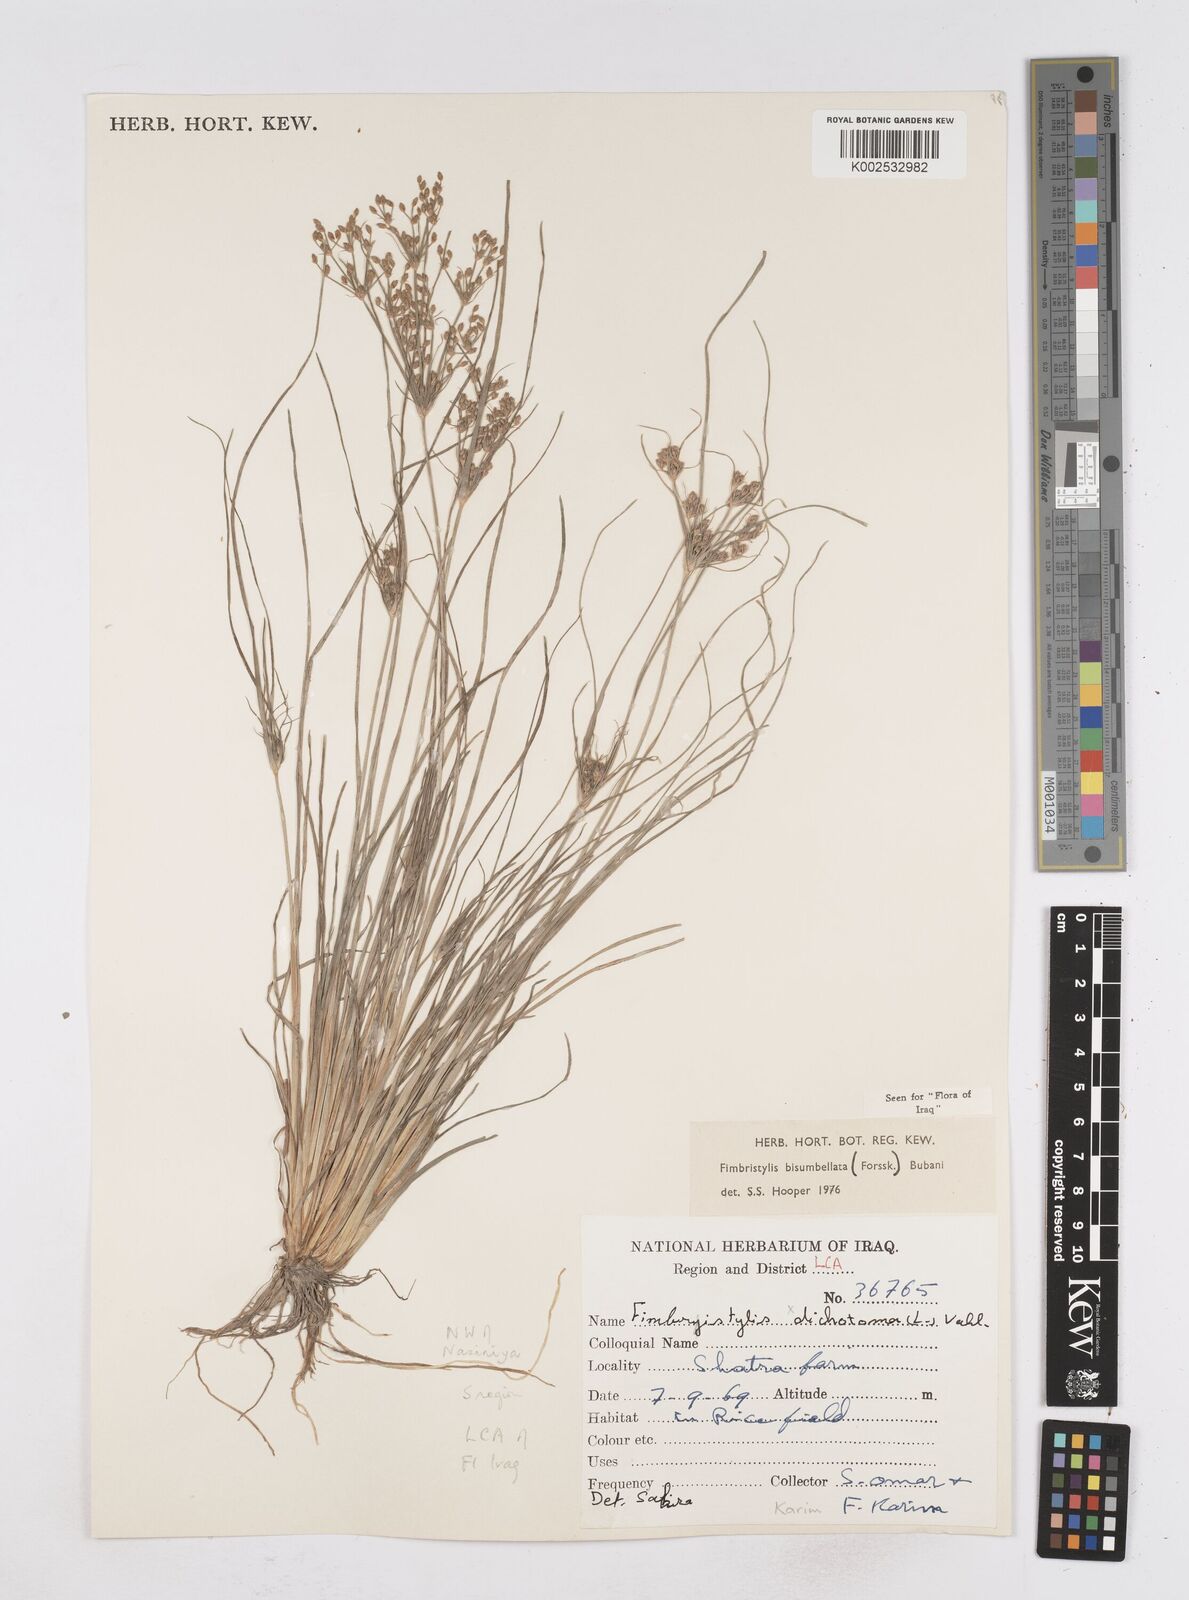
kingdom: Plantae
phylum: Tracheophyta
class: Liliopsida
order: Poales
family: Cyperaceae
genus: Fimbristylis
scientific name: Fimbristylis bisumbellata
